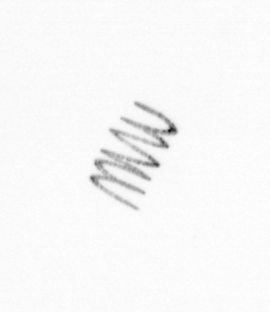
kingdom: Chromista
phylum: Ochrophyta
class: Bacillariophyceae
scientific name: Bacillariophyceae
